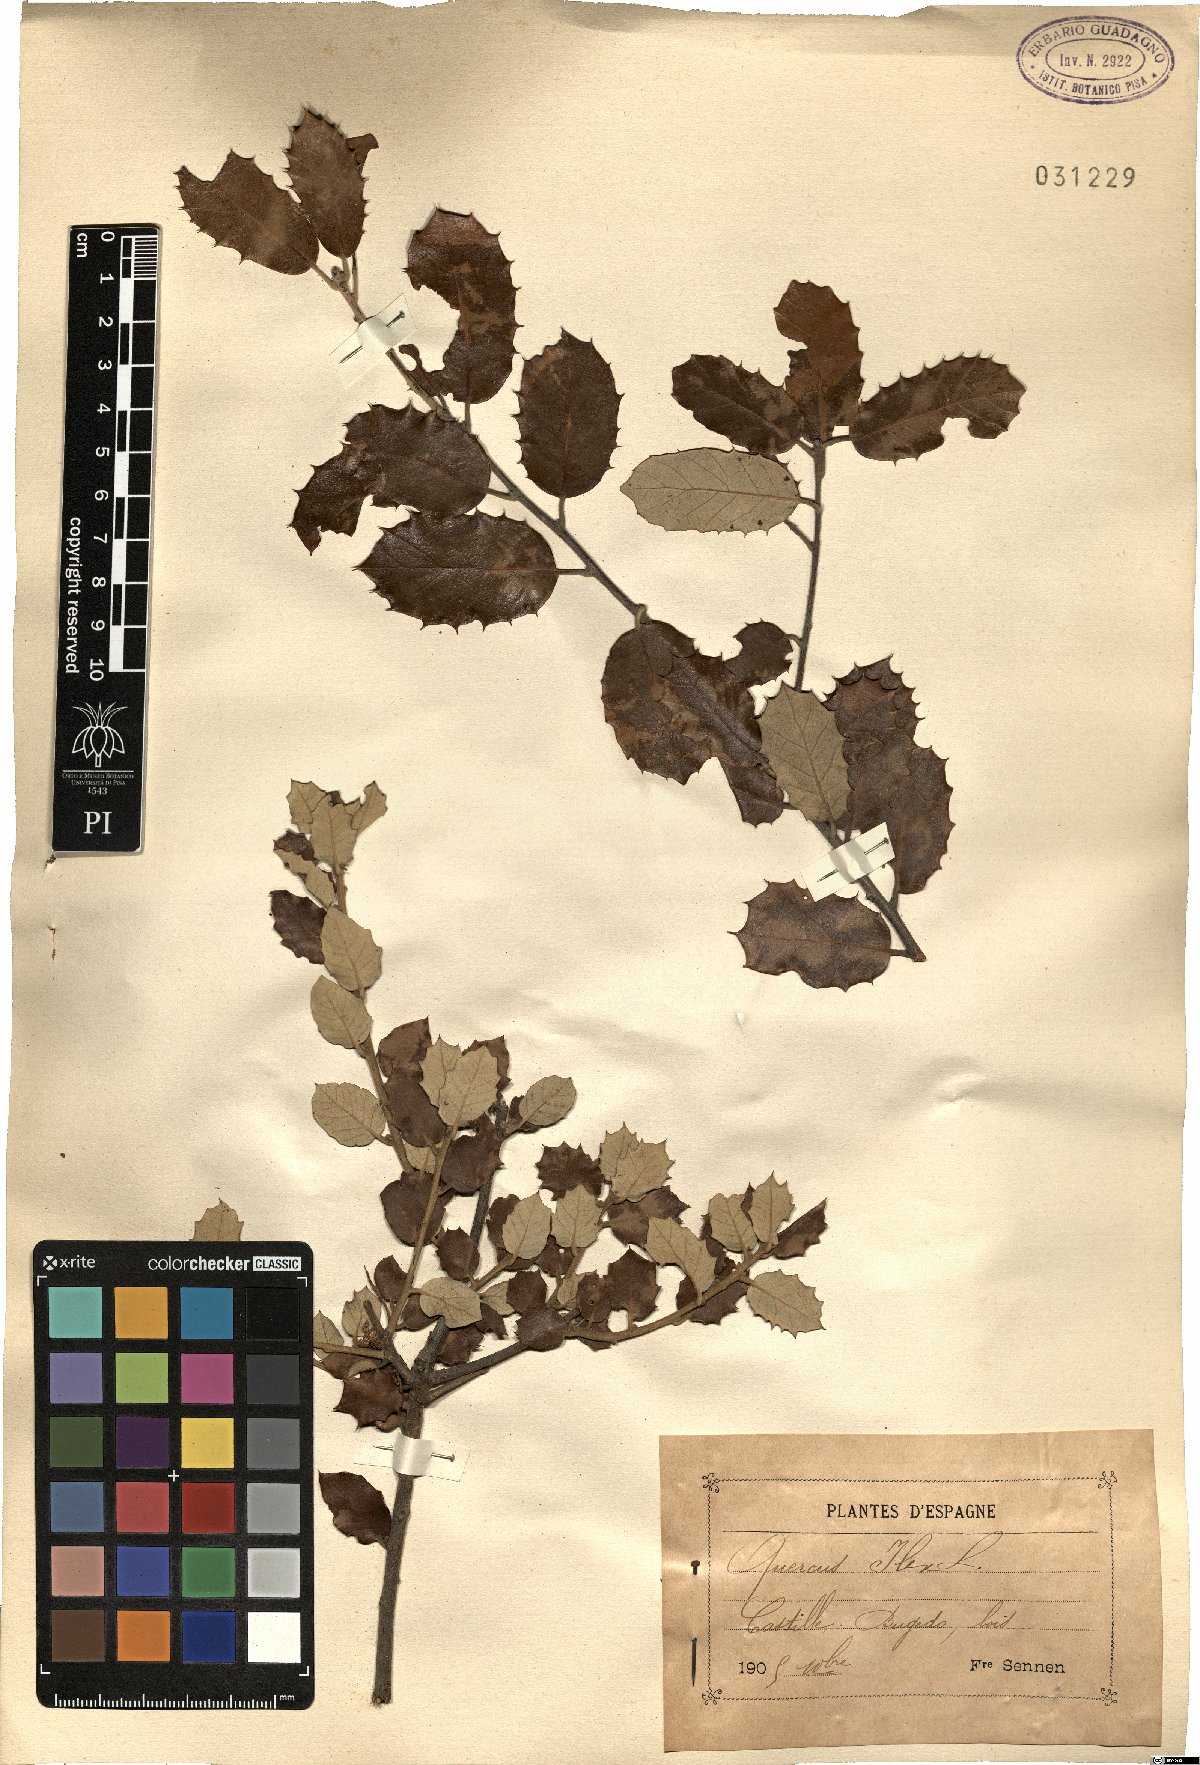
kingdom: Plantae
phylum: Tracheophyta
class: Magnoliopsida
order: Fagales
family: Fagaceae
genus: Quercus
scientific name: Quercus ilex
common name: Evergreen oak
